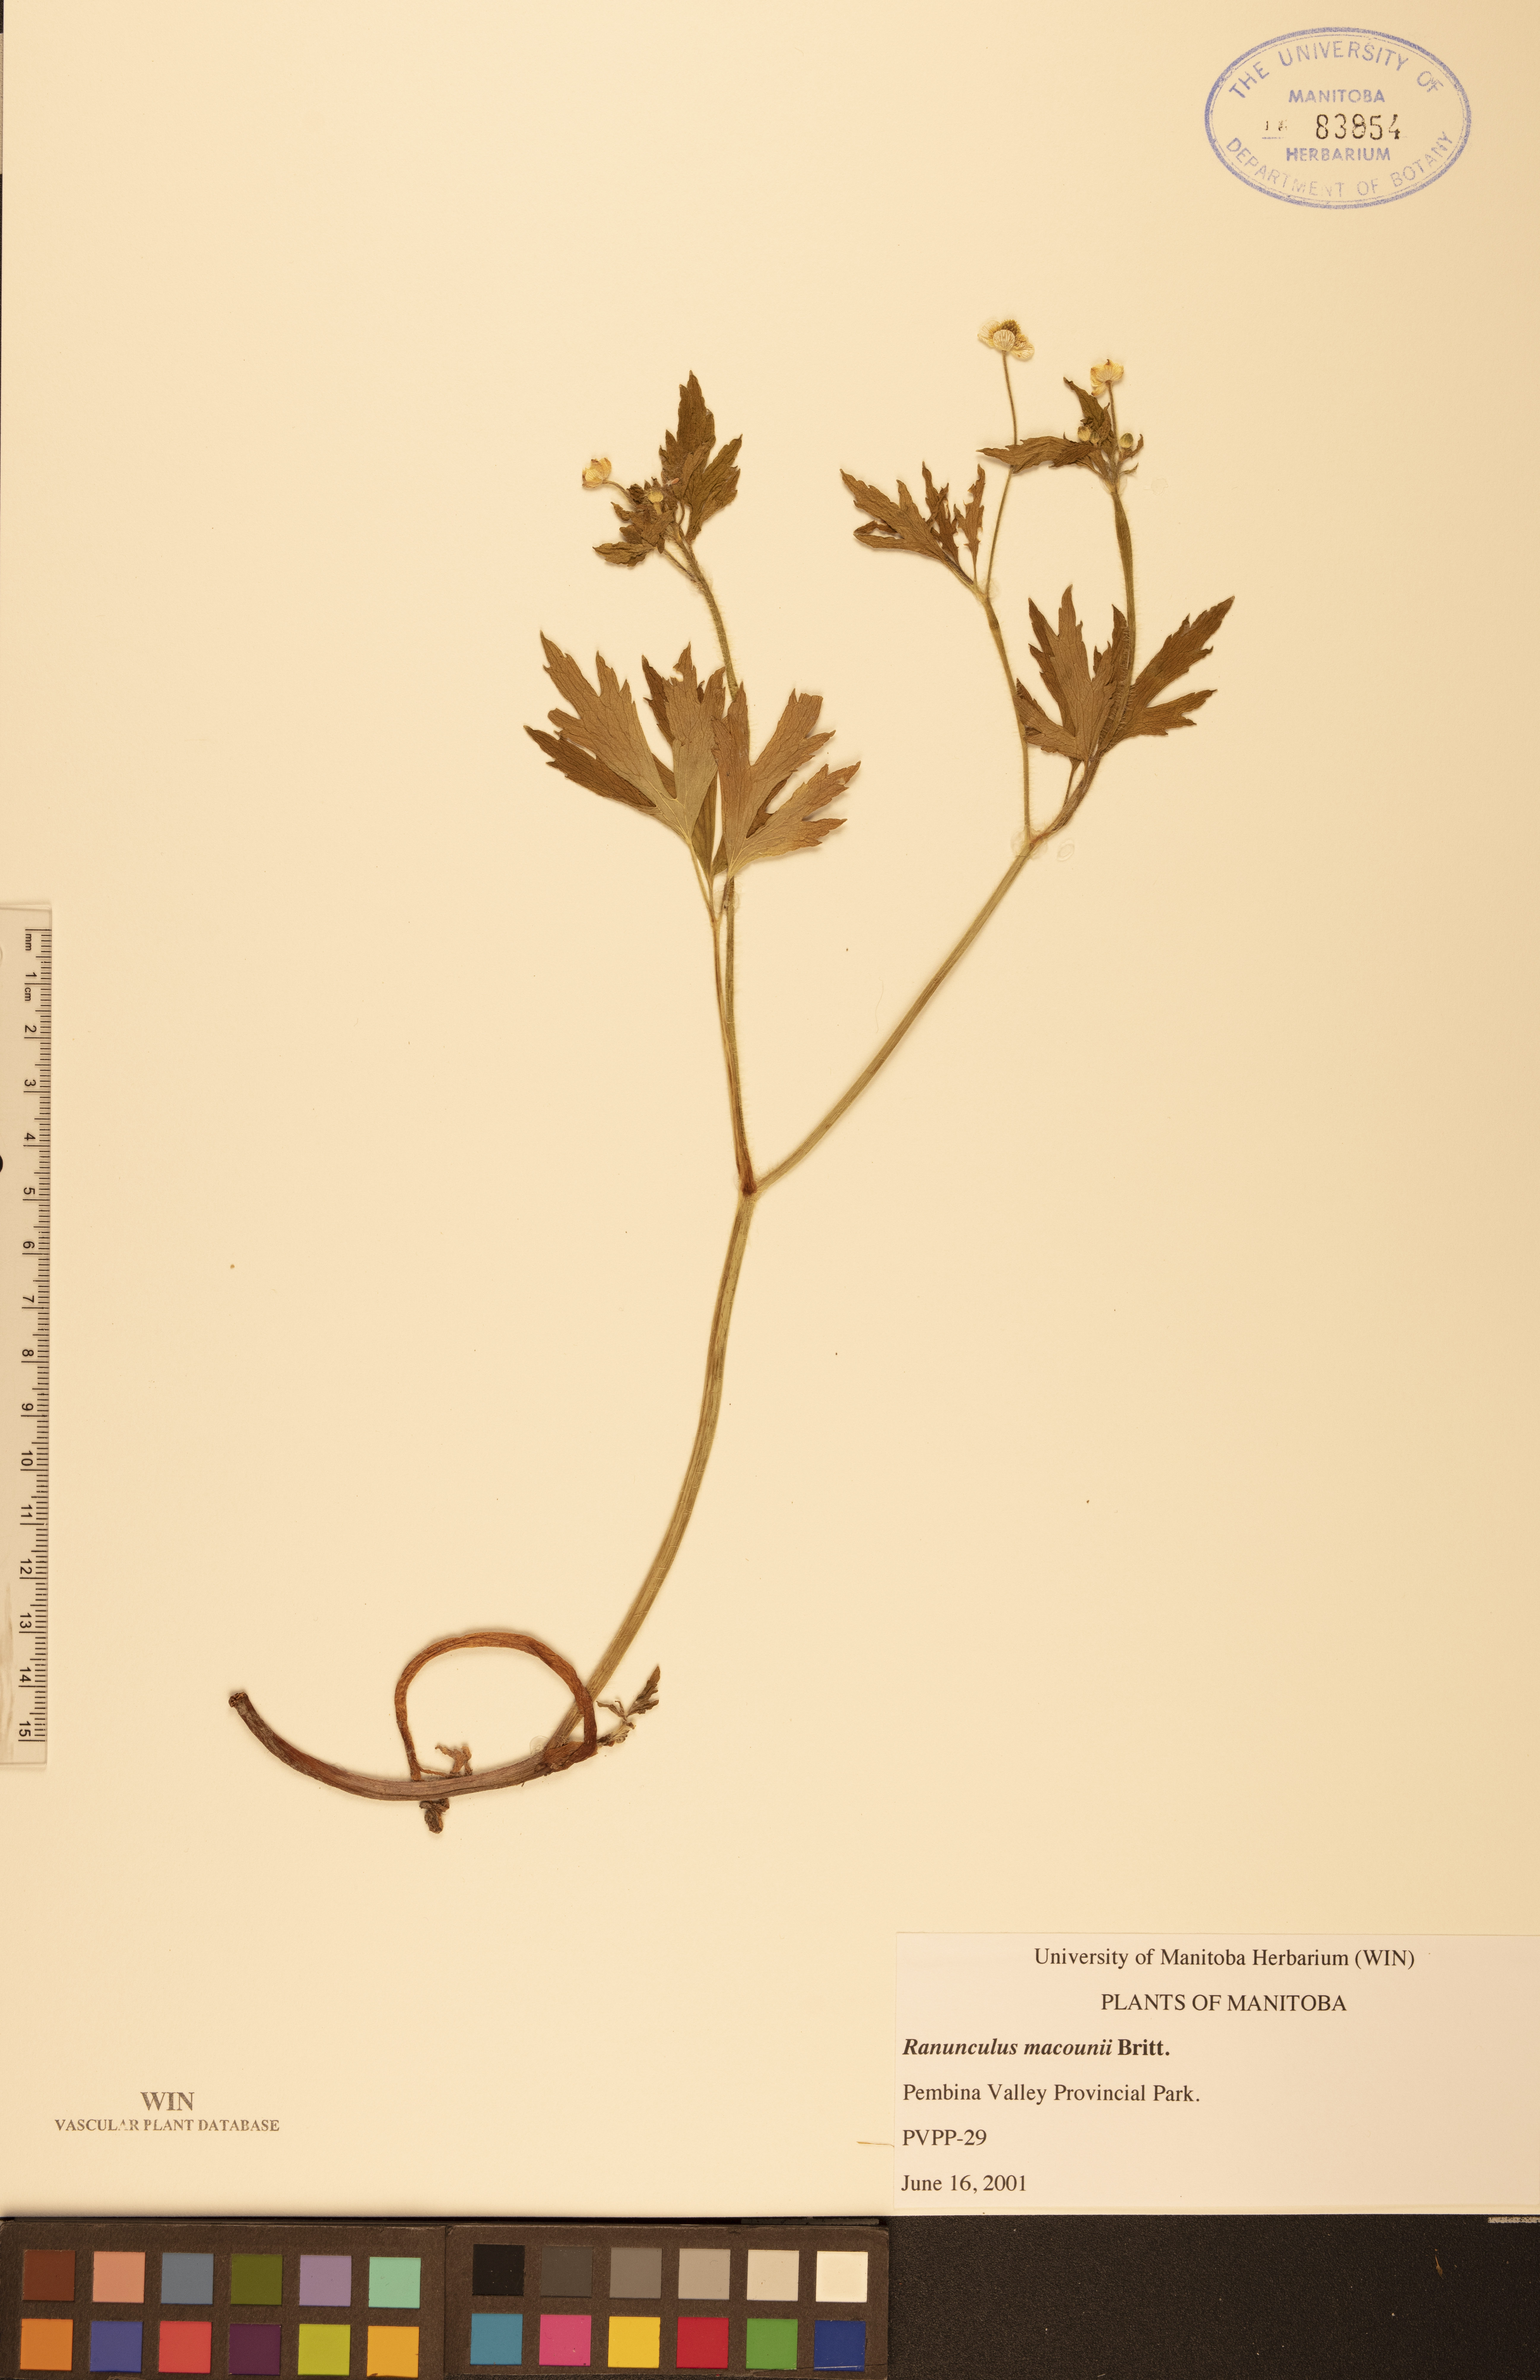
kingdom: Plantae
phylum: Tracheophyta
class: Magnoliopsida
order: Ranunculales
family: Ranunculaceae
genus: Ranunculus
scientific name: Ranunculus macounii
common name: Macoun's buttercup
